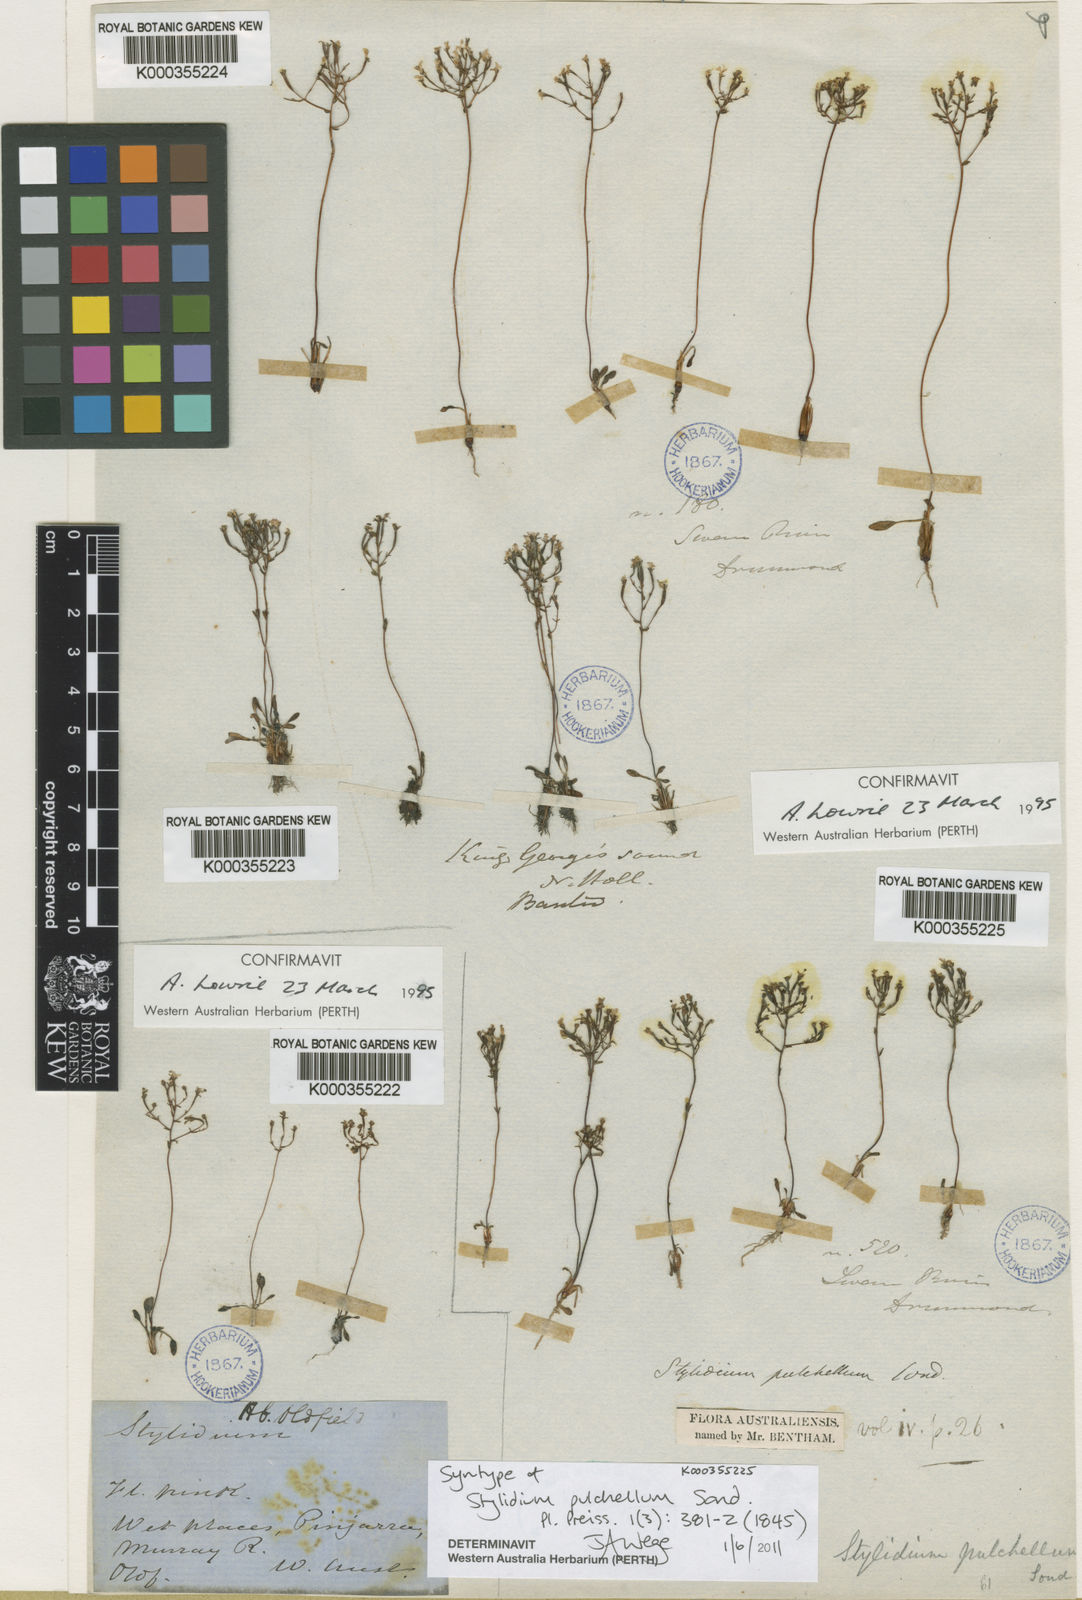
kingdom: Plantae
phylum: Tracheophyta
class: Magnoliopsida
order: Asterales
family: Stylidiaceae
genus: Stylidium
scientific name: Stylidium pulchellum
